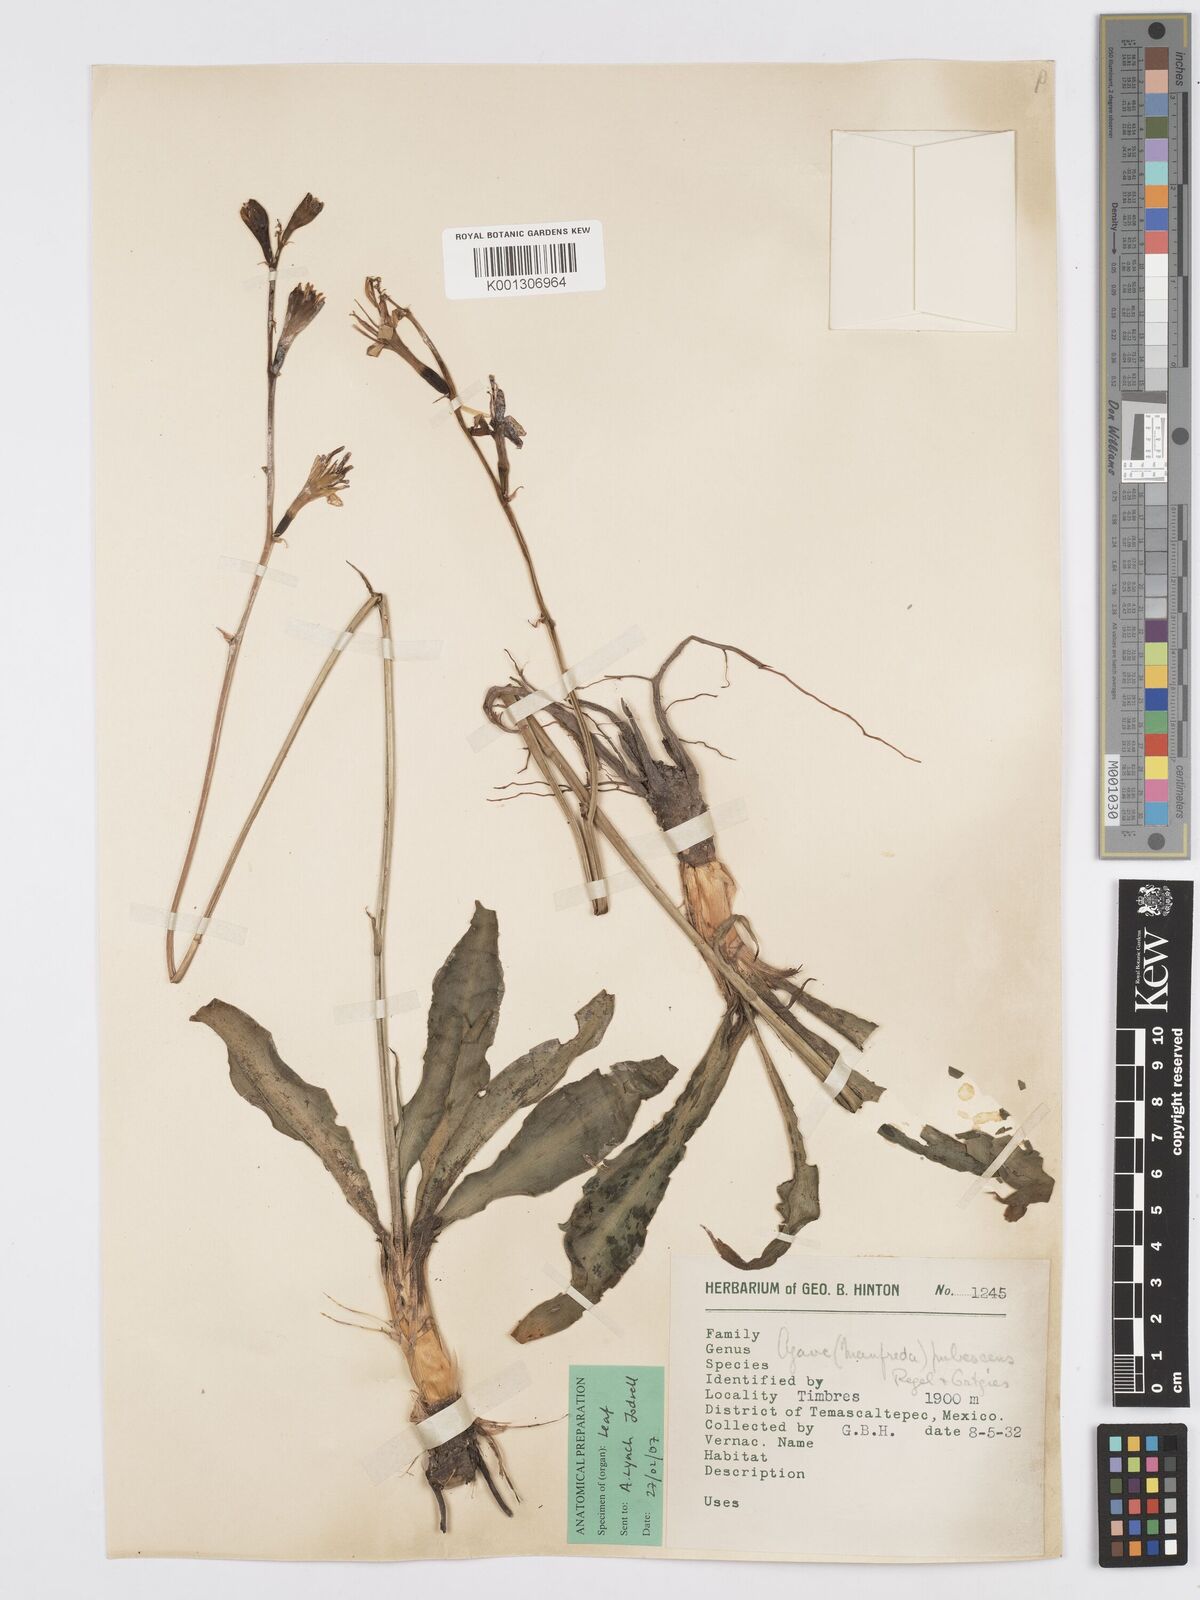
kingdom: Plantae
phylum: Tracheophyta
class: Liliopsida
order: Asparagales
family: Asparagaceae
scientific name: Asparagaceae
